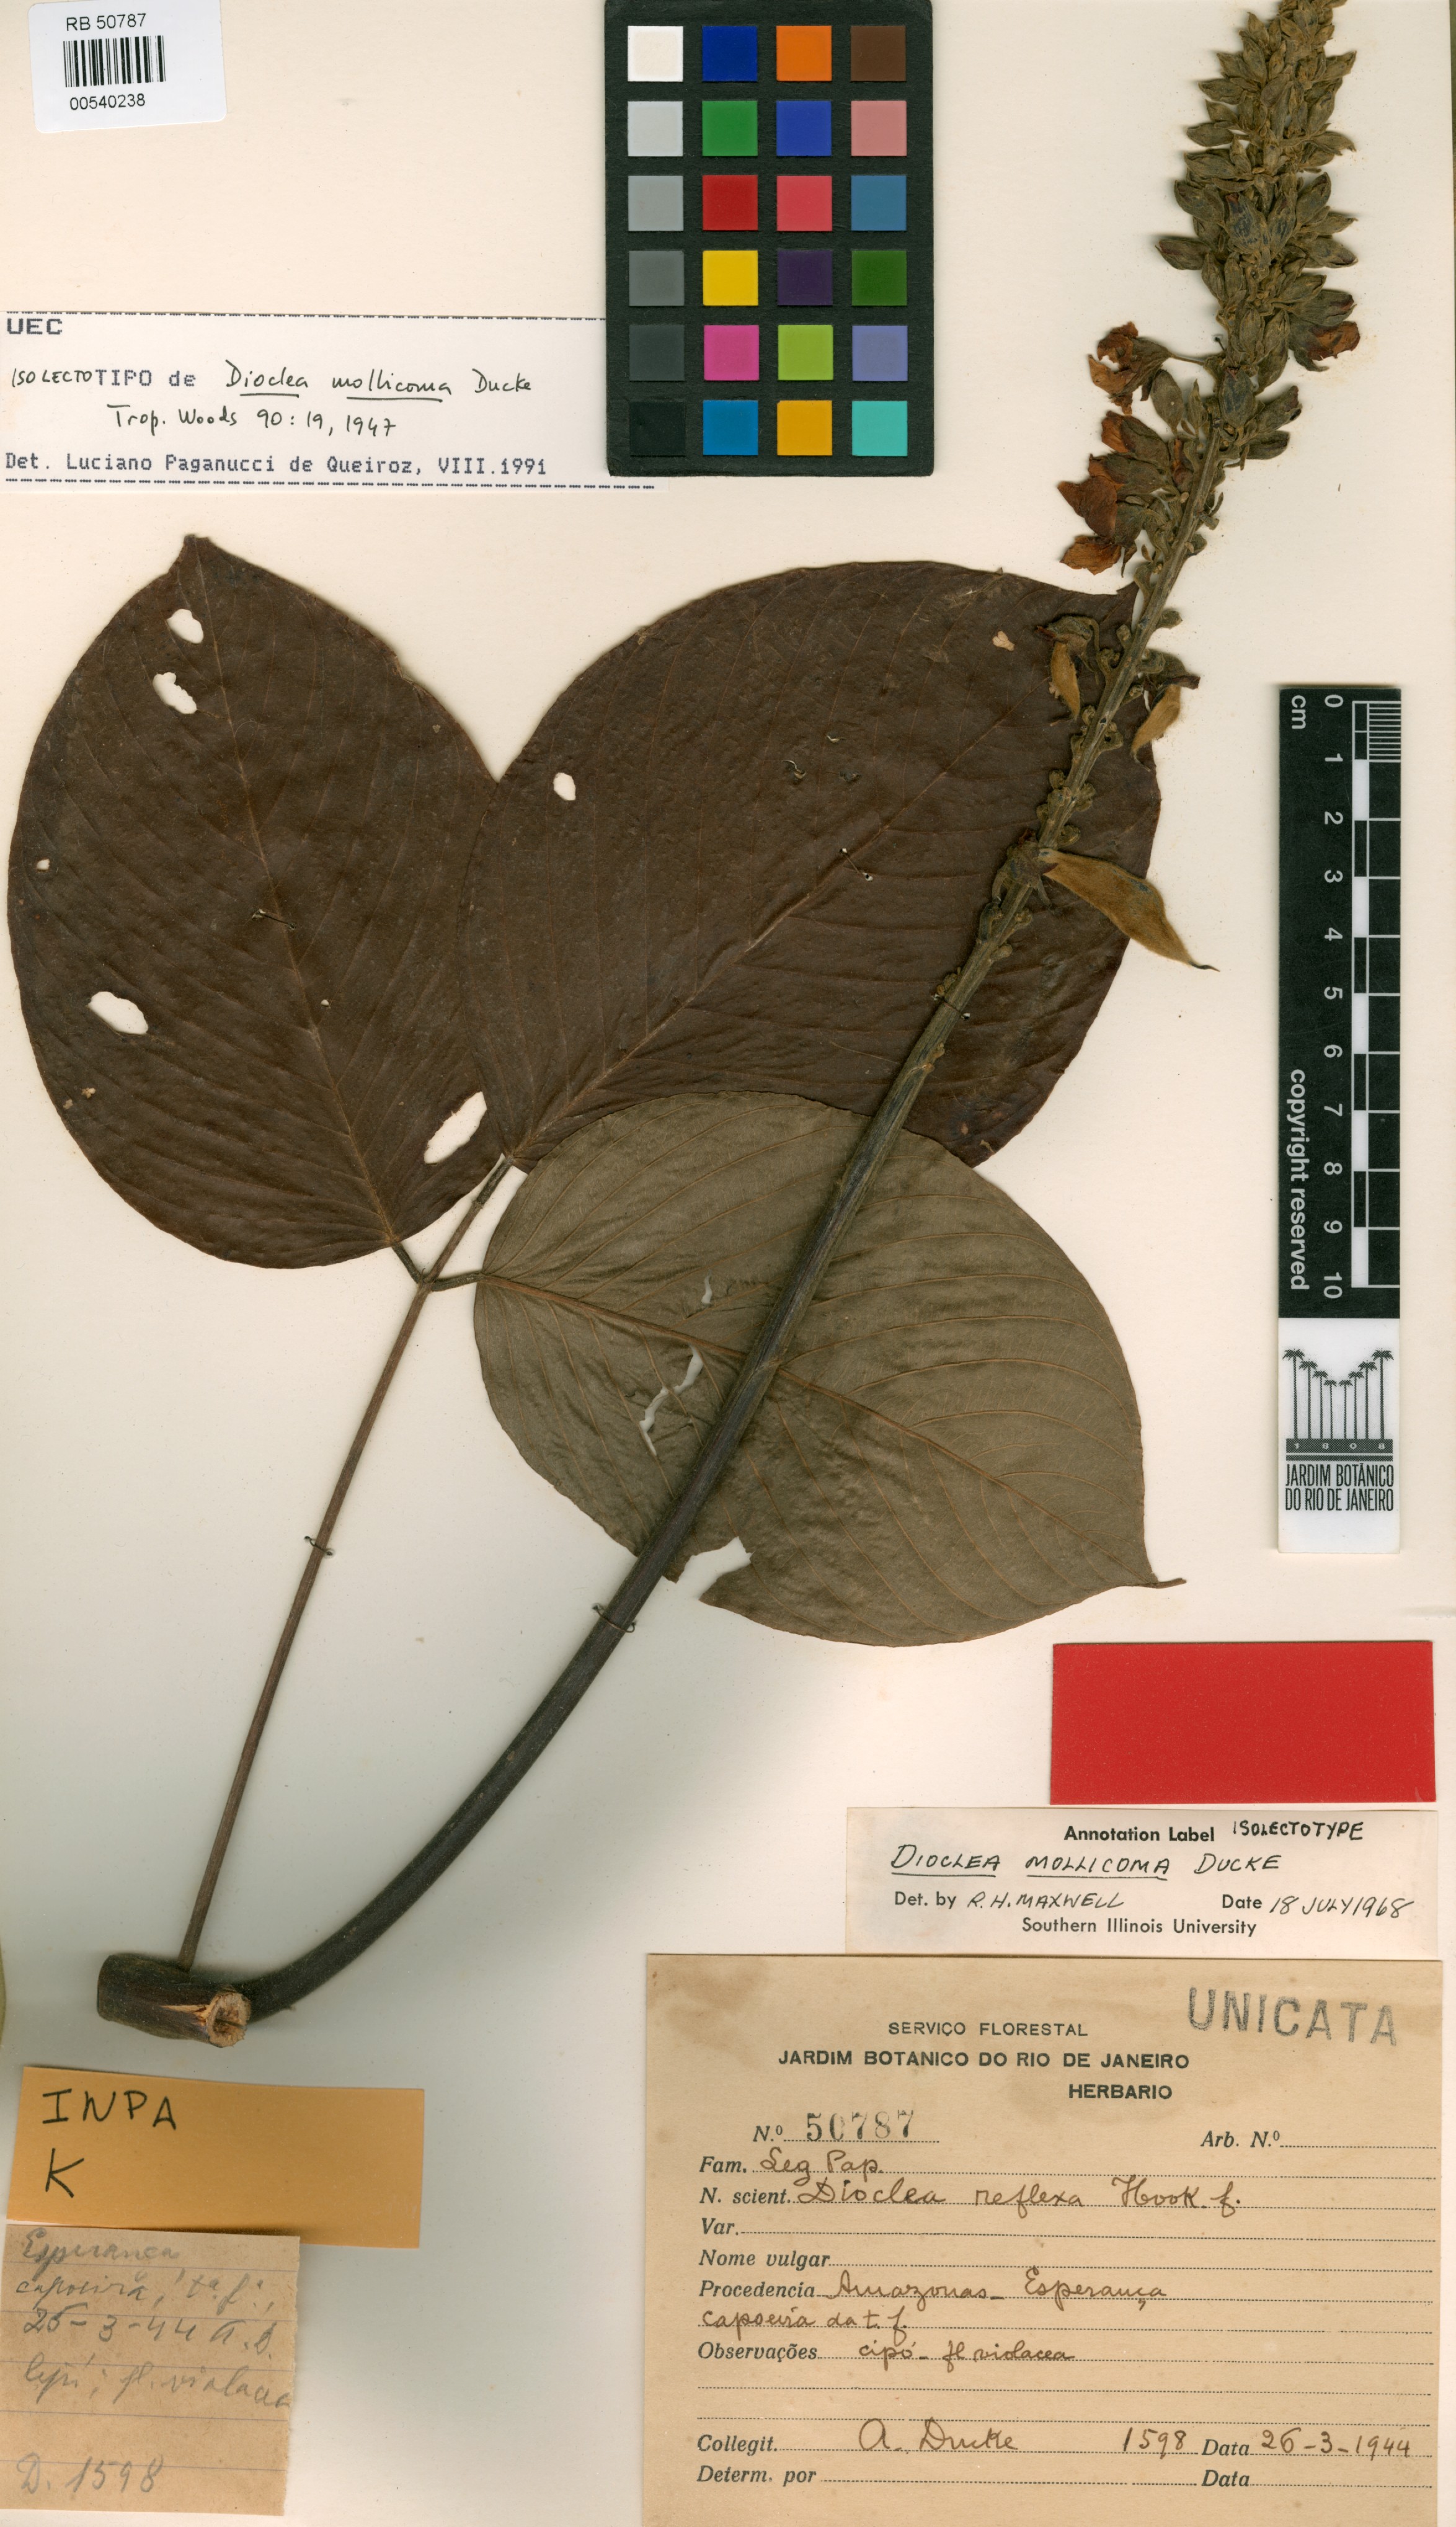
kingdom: Plantae
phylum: Tracheophyta
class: Magnoliopsida
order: Fabales
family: Fabaceae
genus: Macropsychanthus
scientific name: Macropsychanthus mollicomus
